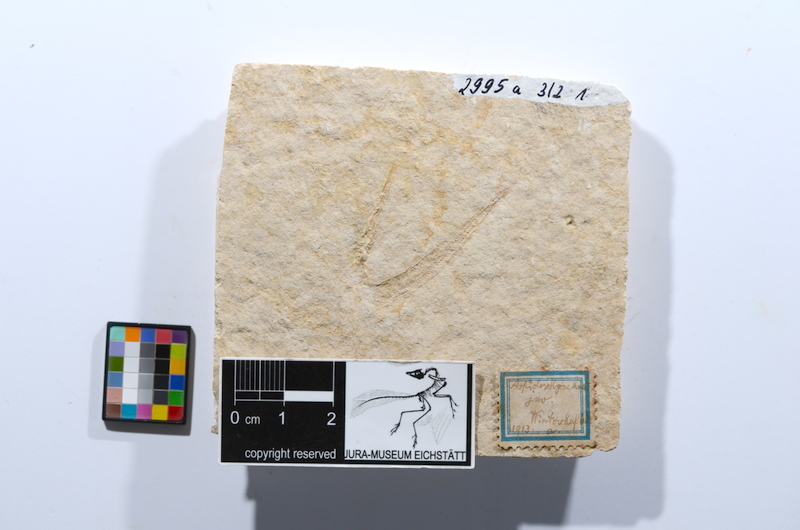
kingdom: Animalia
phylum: Chordata
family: Aspidorhynchidae
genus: Belonostomus
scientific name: Belonostomus
